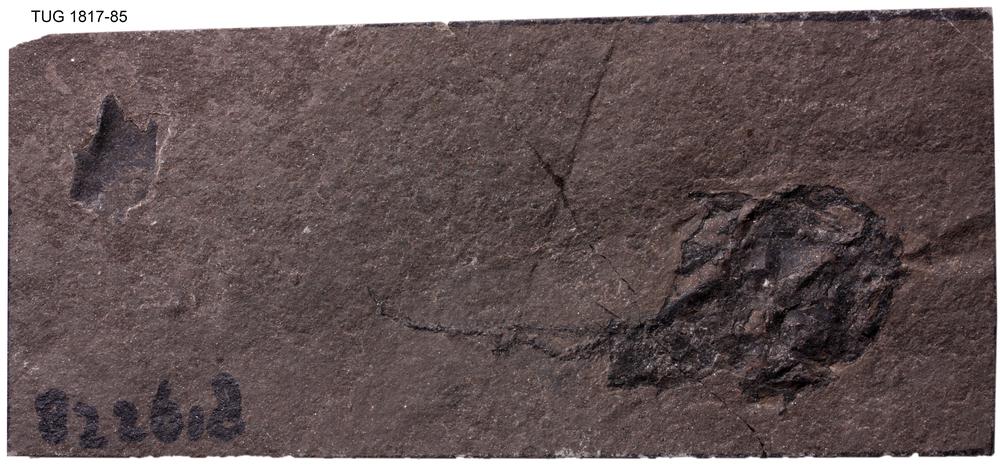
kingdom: Animalia
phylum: Chordata
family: Coccosteidae
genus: Millerosteus
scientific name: Millerosteus minor
